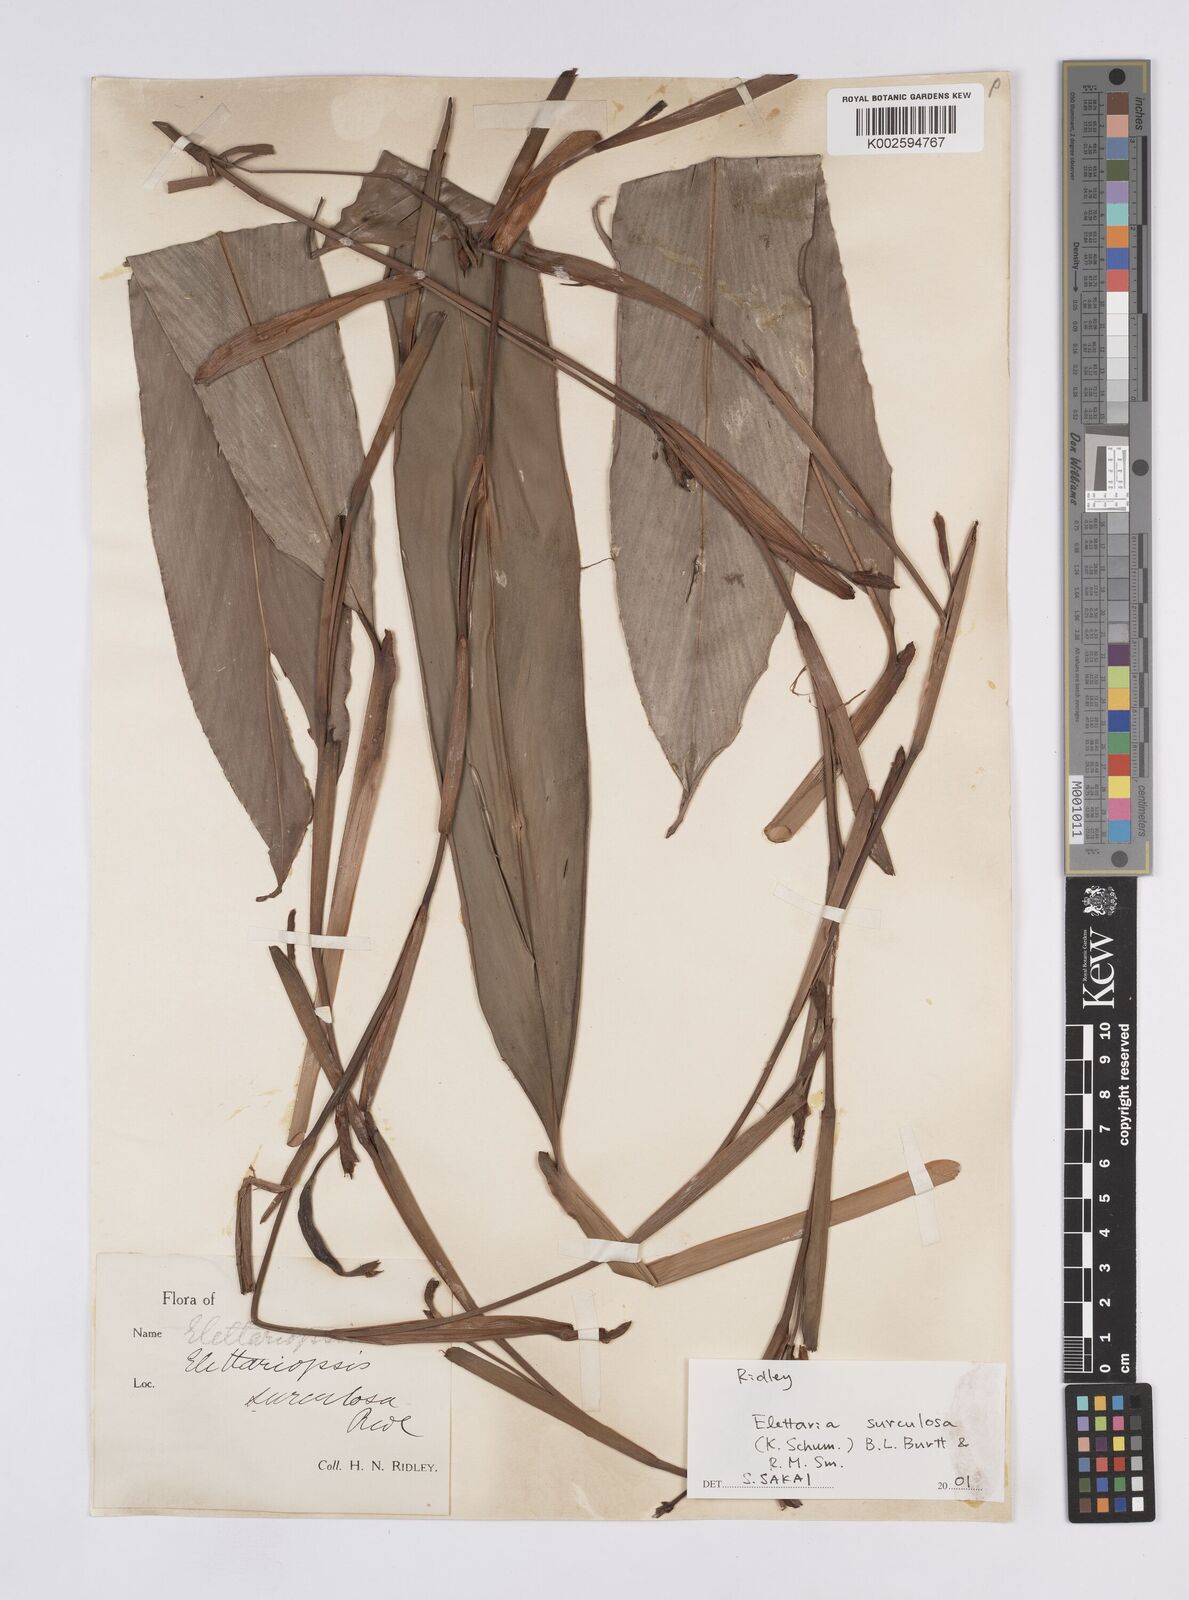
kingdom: Plantae
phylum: Tracheophyta
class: Liliopsida
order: Zingiberales
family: Zingiberaceae
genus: Sulettaria
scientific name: Sulettaria multiflora
